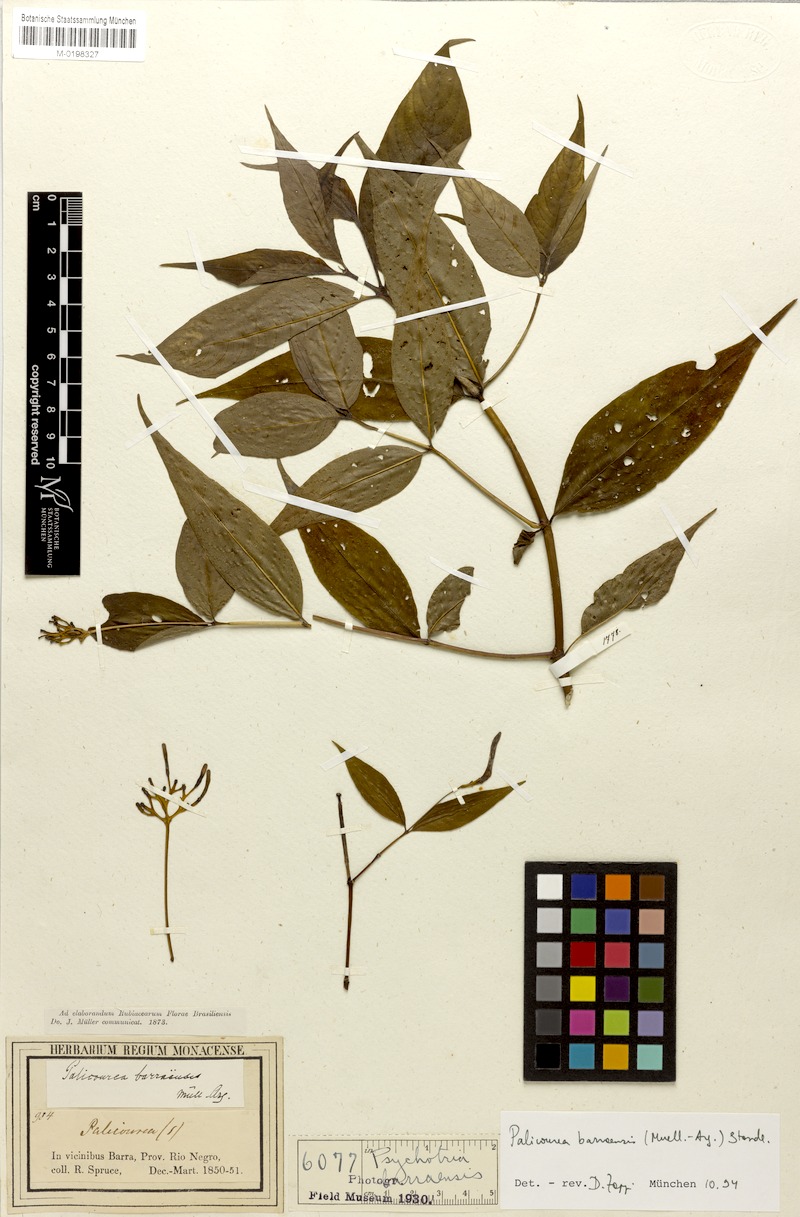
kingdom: Plantae
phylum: Tracheophyta
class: Magnoliopsida
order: Gentianales
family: Rubiaceae
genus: Palicourea
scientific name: Palicourea barraensis
